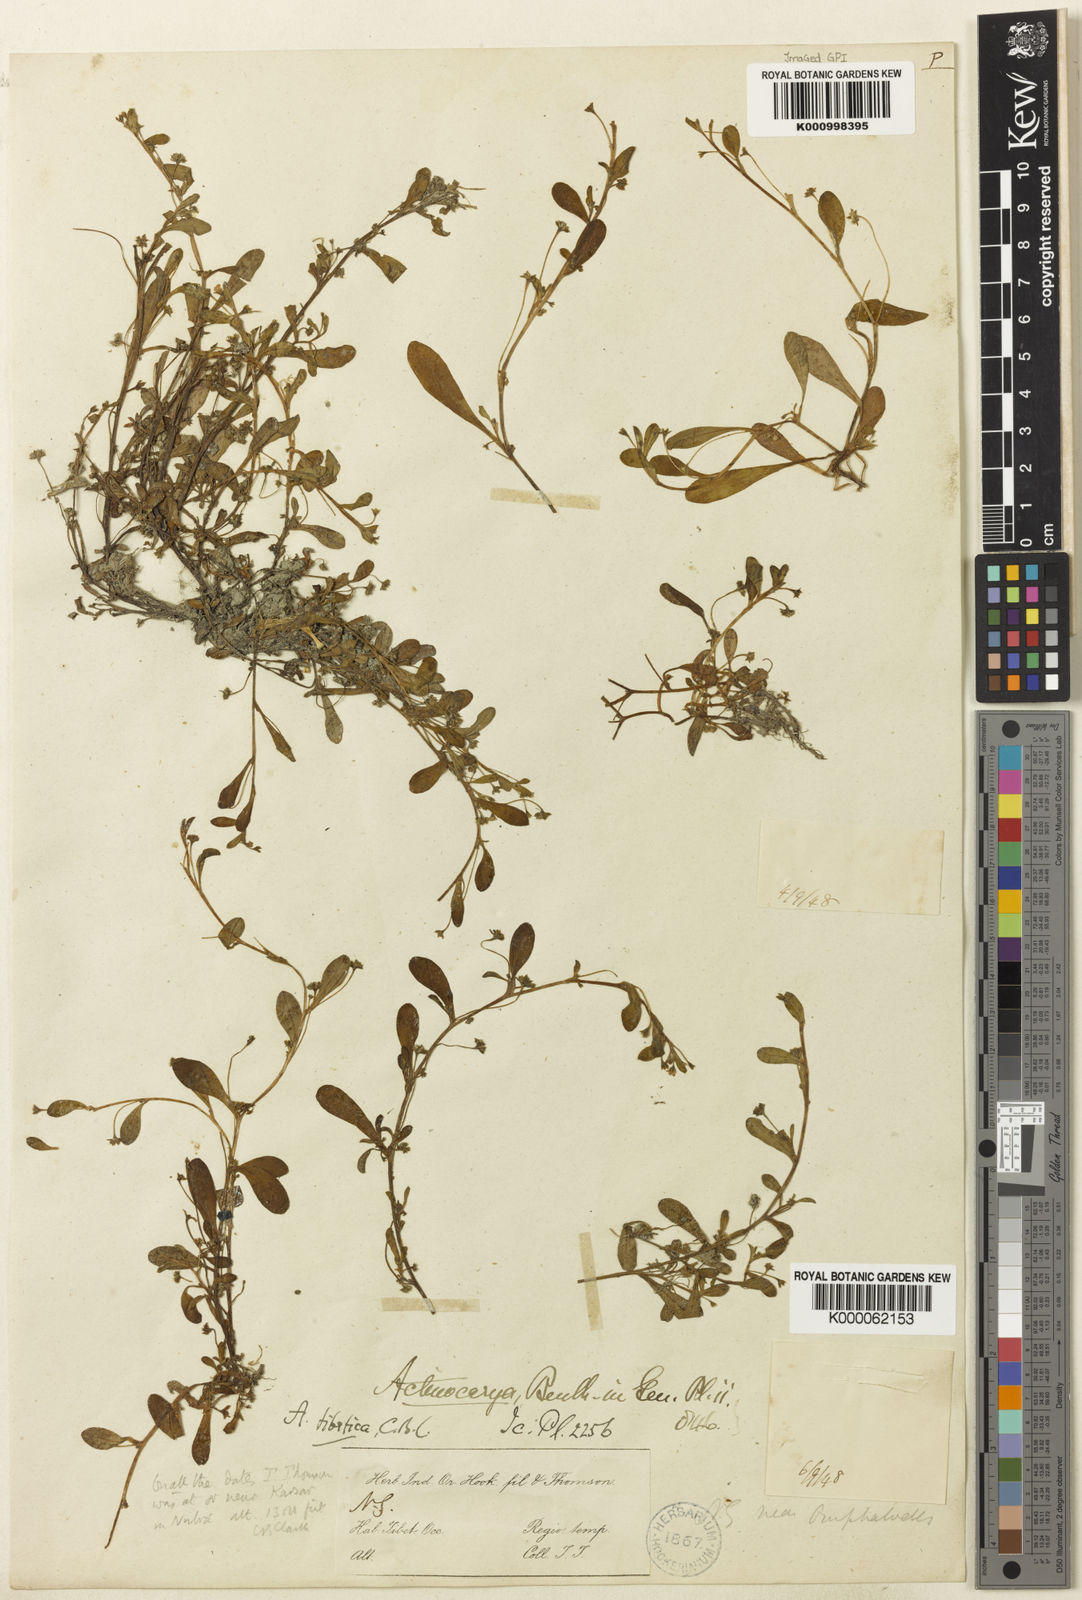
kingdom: Plantae
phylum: Tracheophyta
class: Magnoliopsida
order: Boraginales
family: Boraginaceae
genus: Actinocarya
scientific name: Actinocarya
